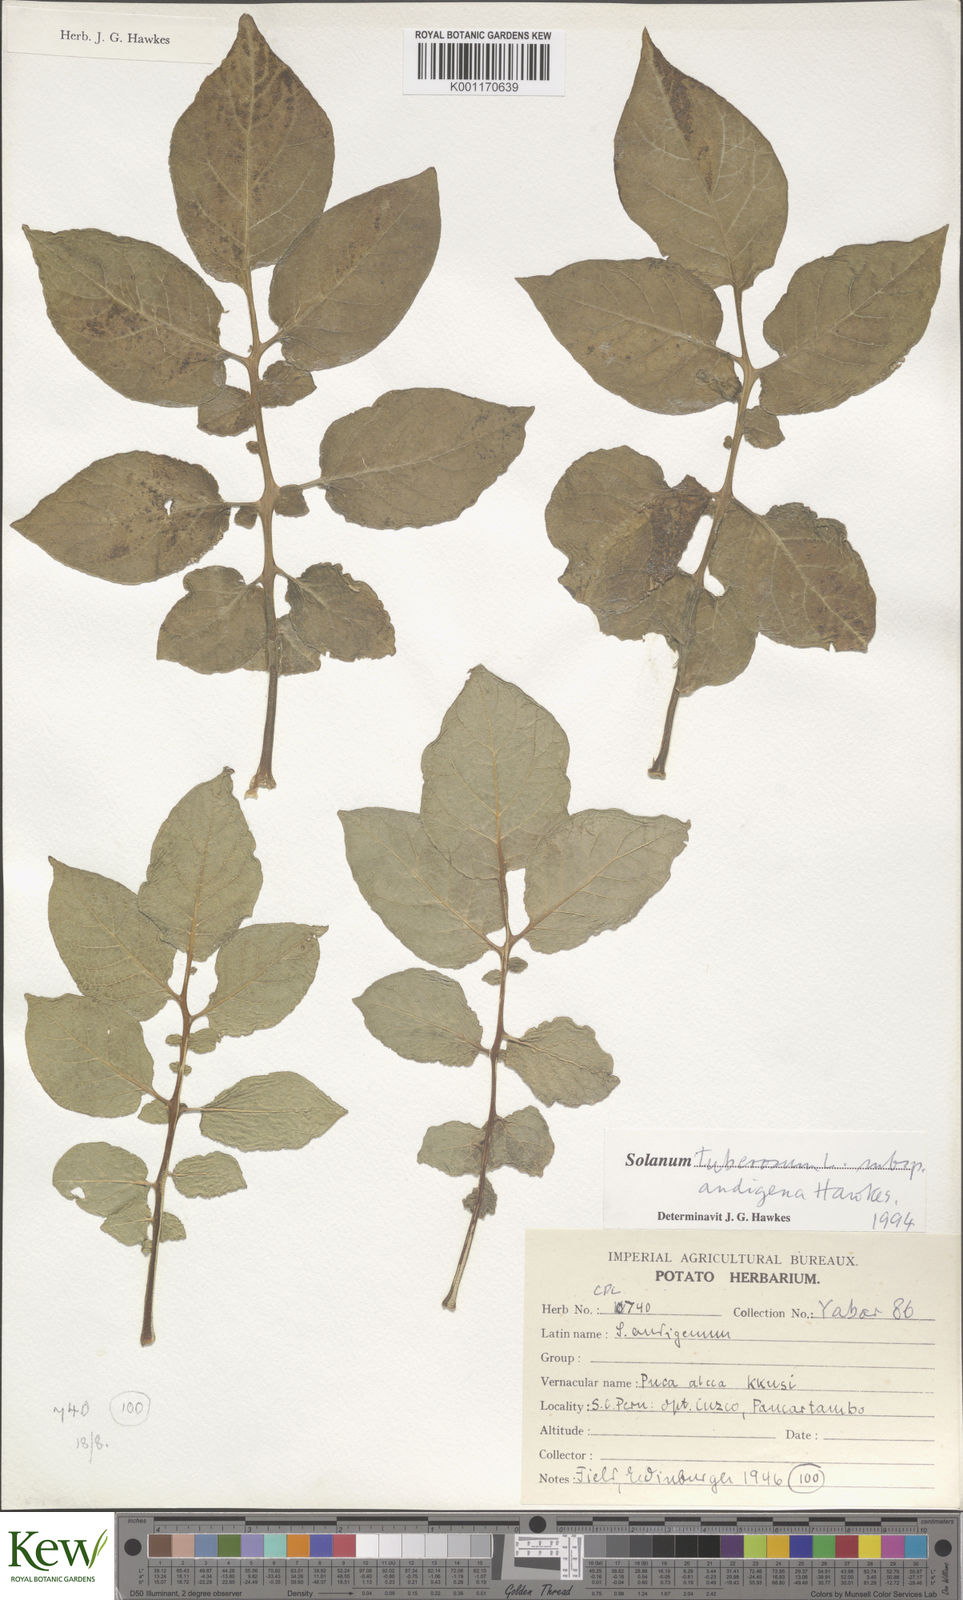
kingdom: Plantae
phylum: Tracheophyta
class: Magnoliopsida
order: Solanales
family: Solanaceae
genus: Solanum
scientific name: Solanum tuberosum
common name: Potato
